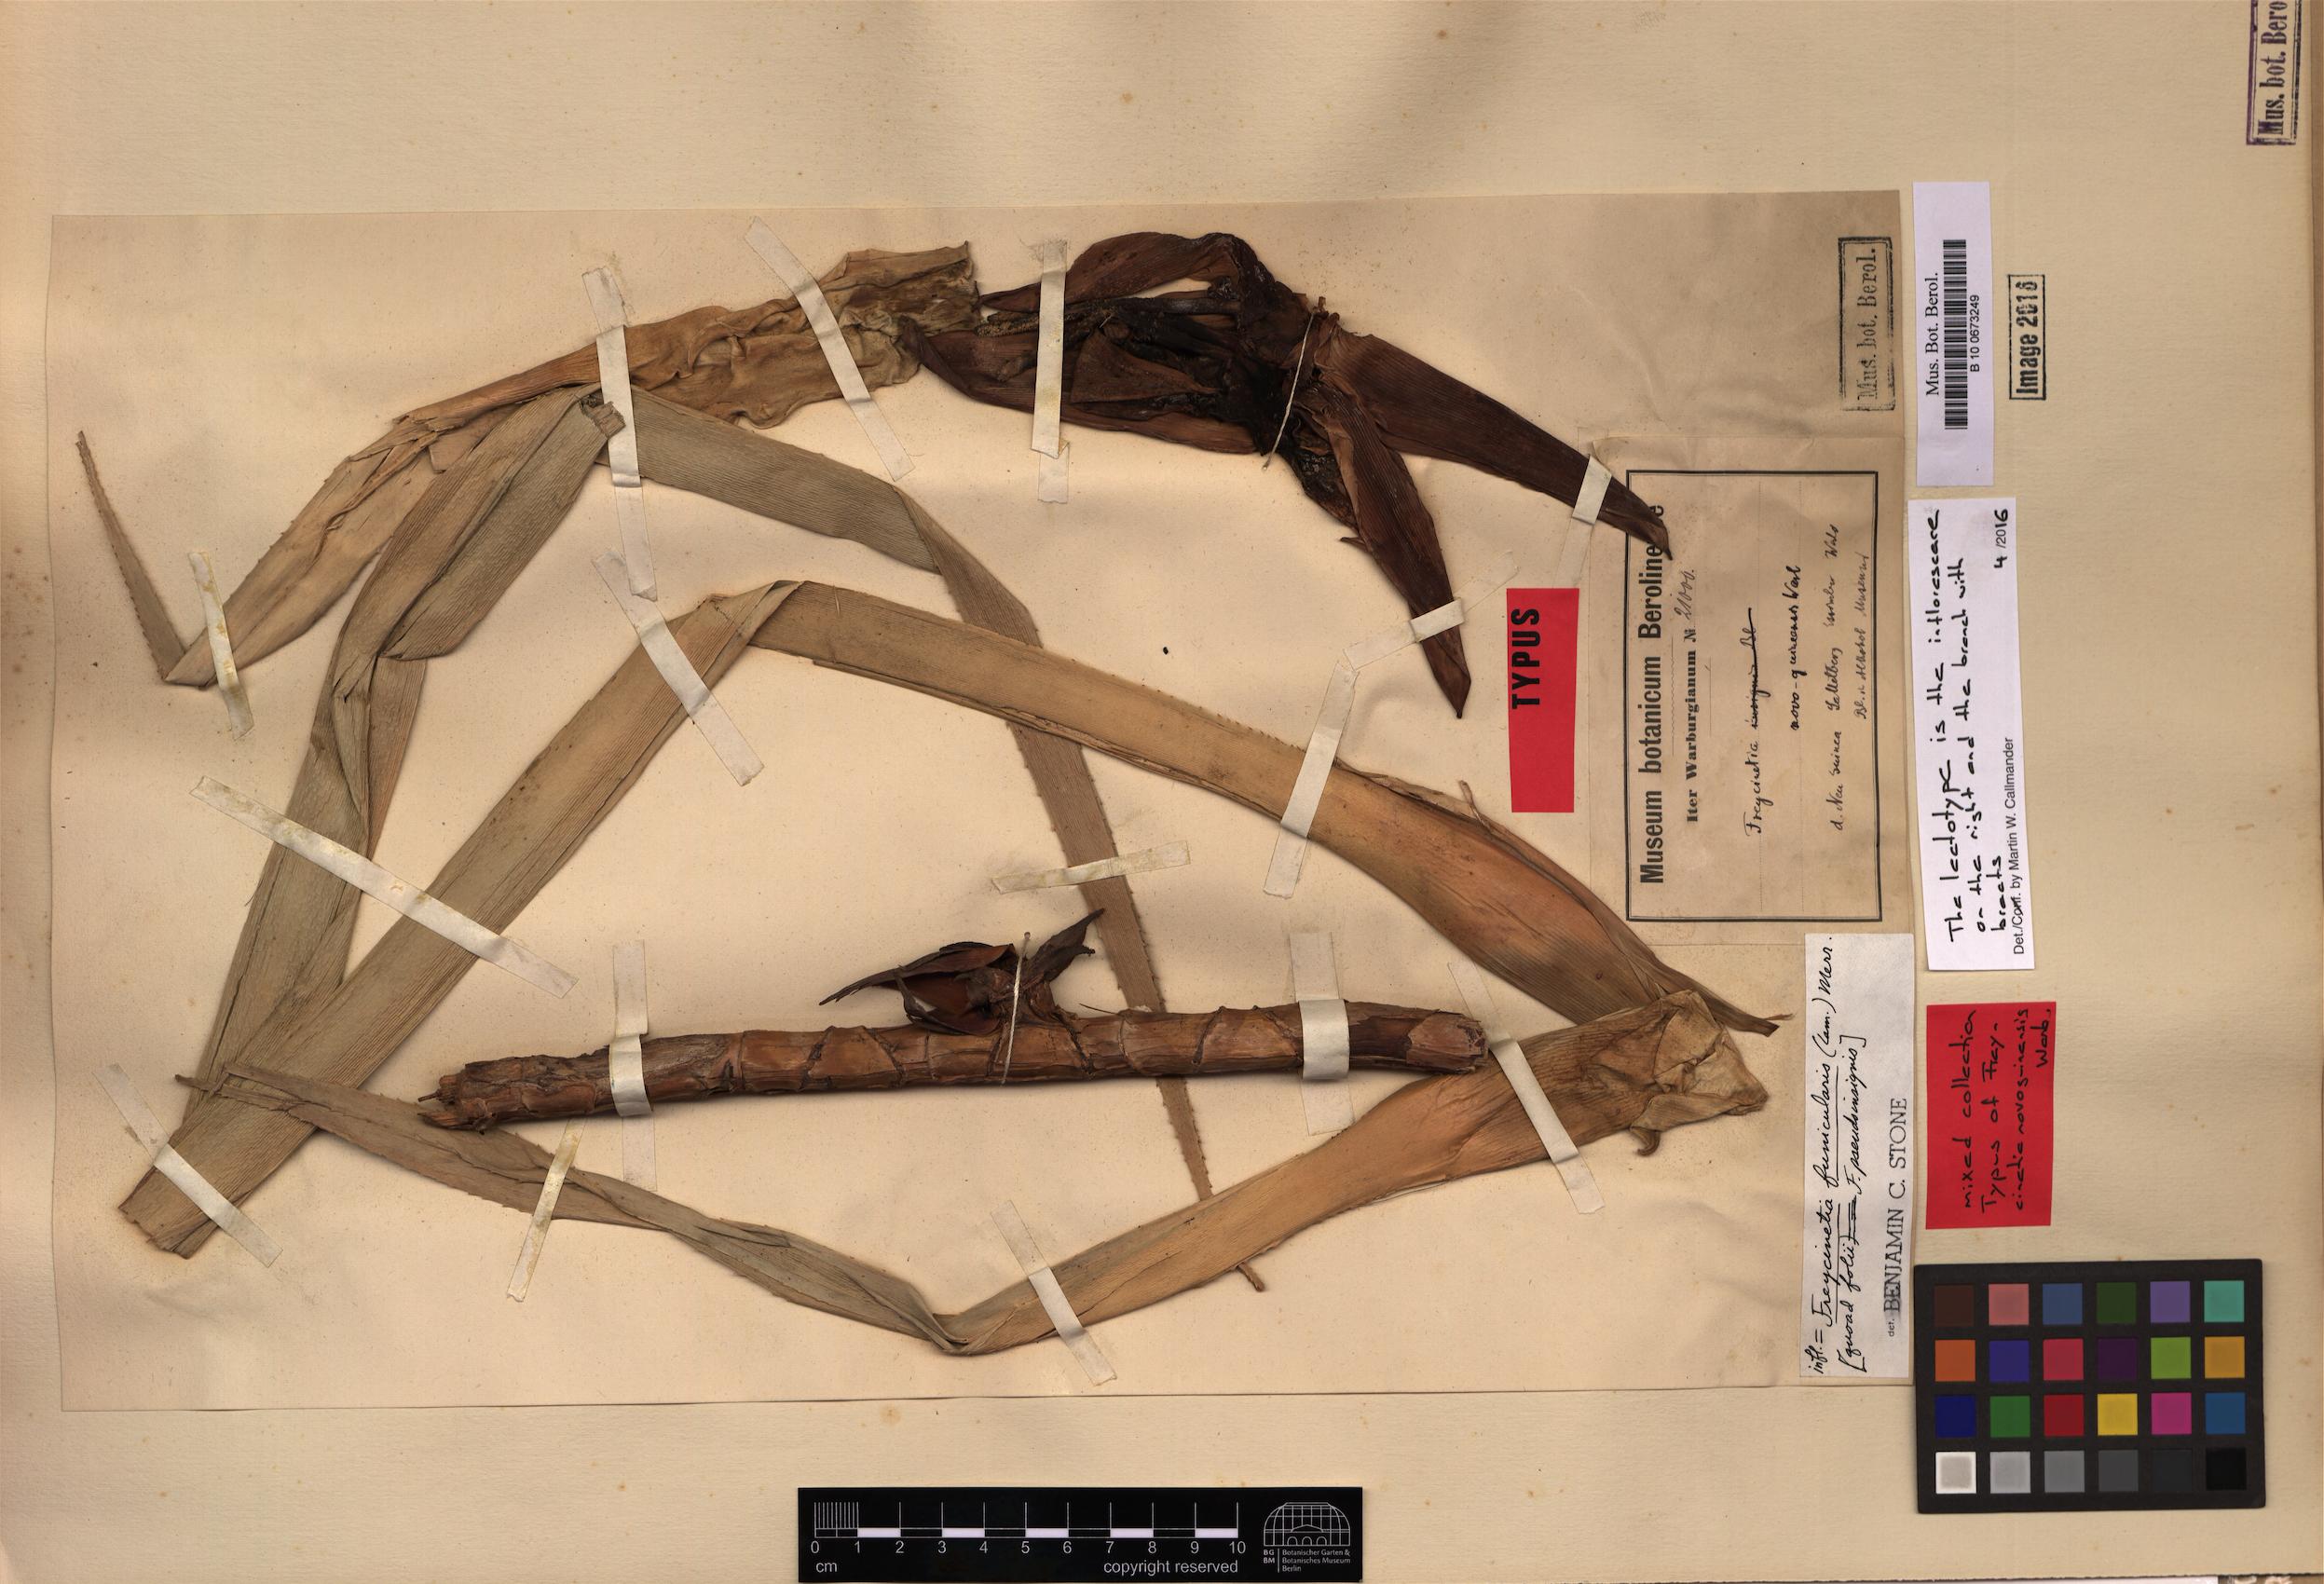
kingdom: Plantae
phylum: Tracheophyta
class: Liliopsida
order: Pandanales
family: Pandanaceae
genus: Freycinetia
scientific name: Freycinetia funicularis
